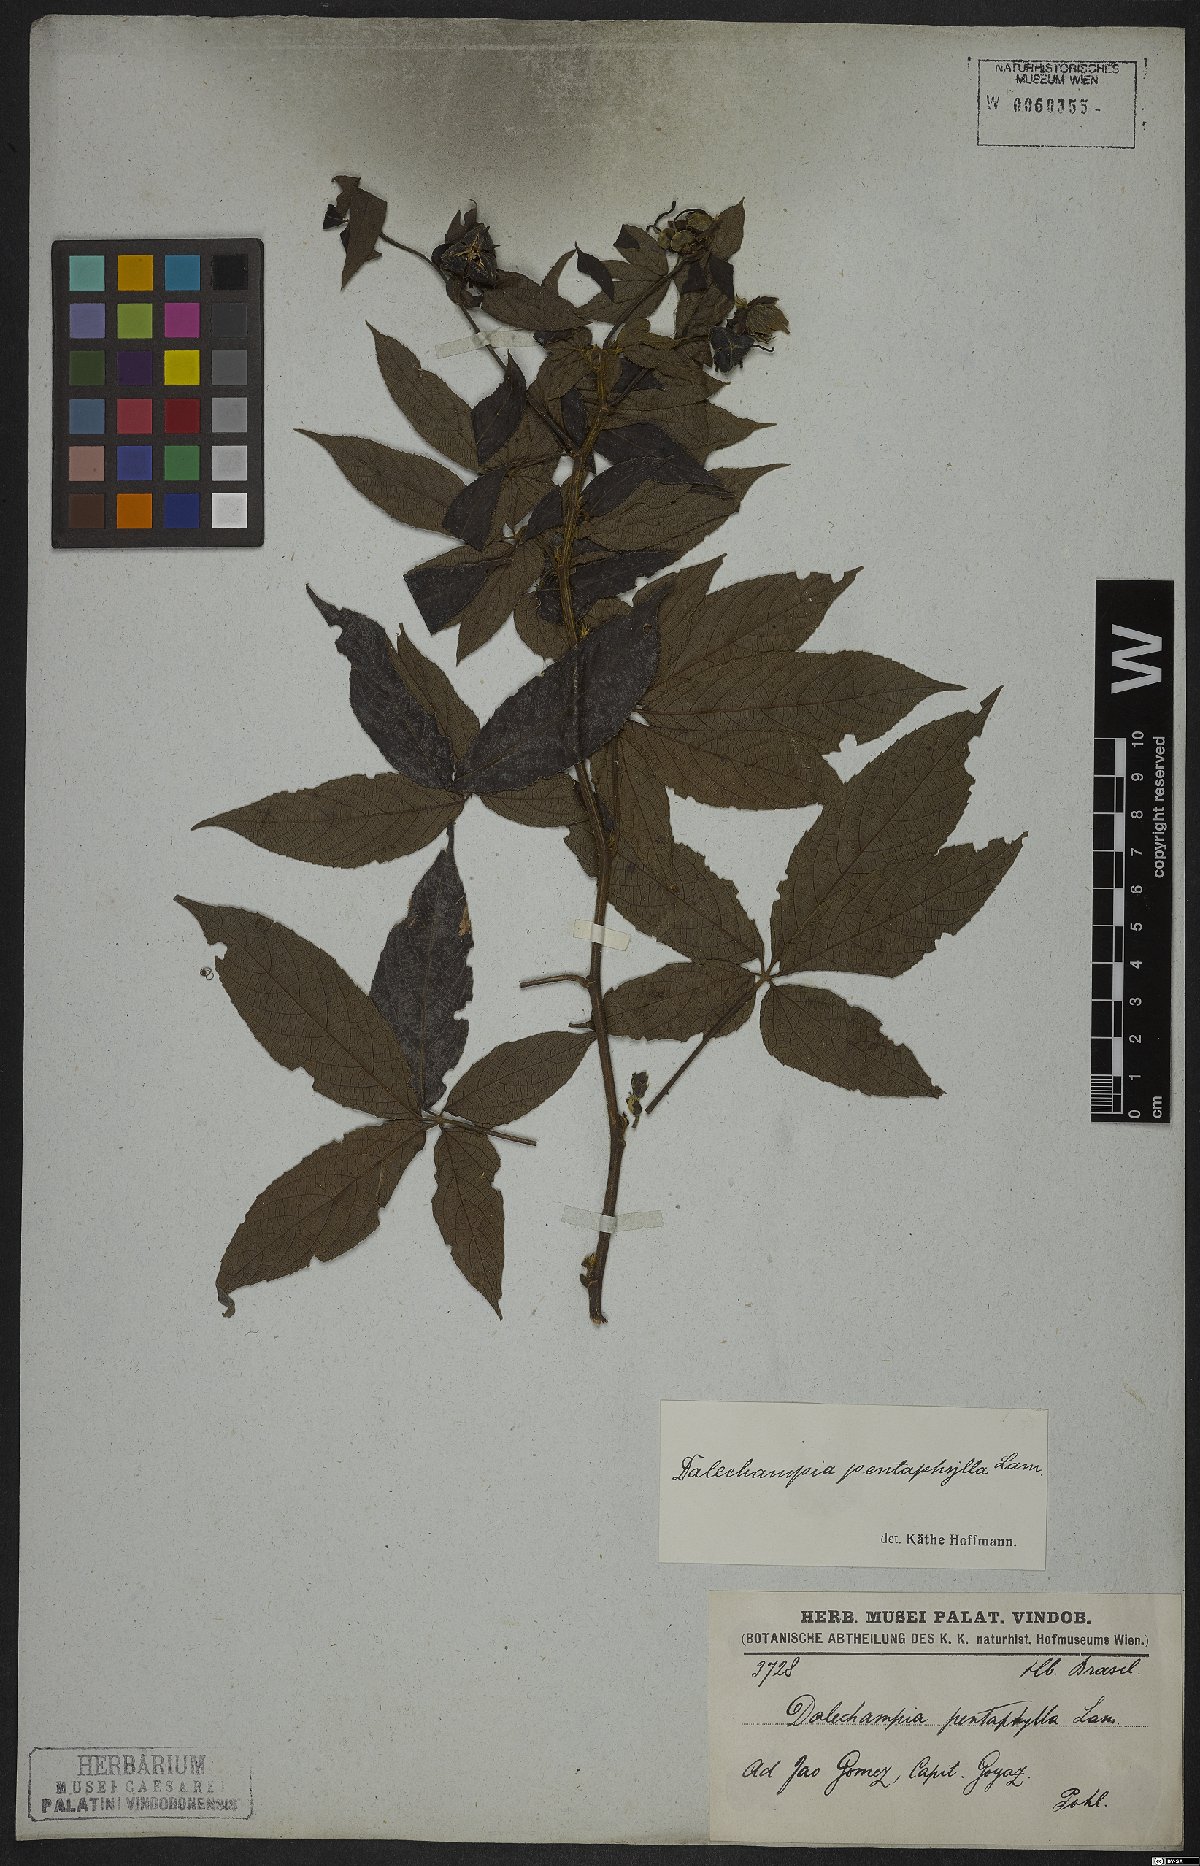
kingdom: Plantae
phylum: Tracheophyta
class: Magnoliopsida
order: Malpighiales
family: Euphorbiaceae
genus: Dalechampia
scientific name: Dalechampia pentaphylla
